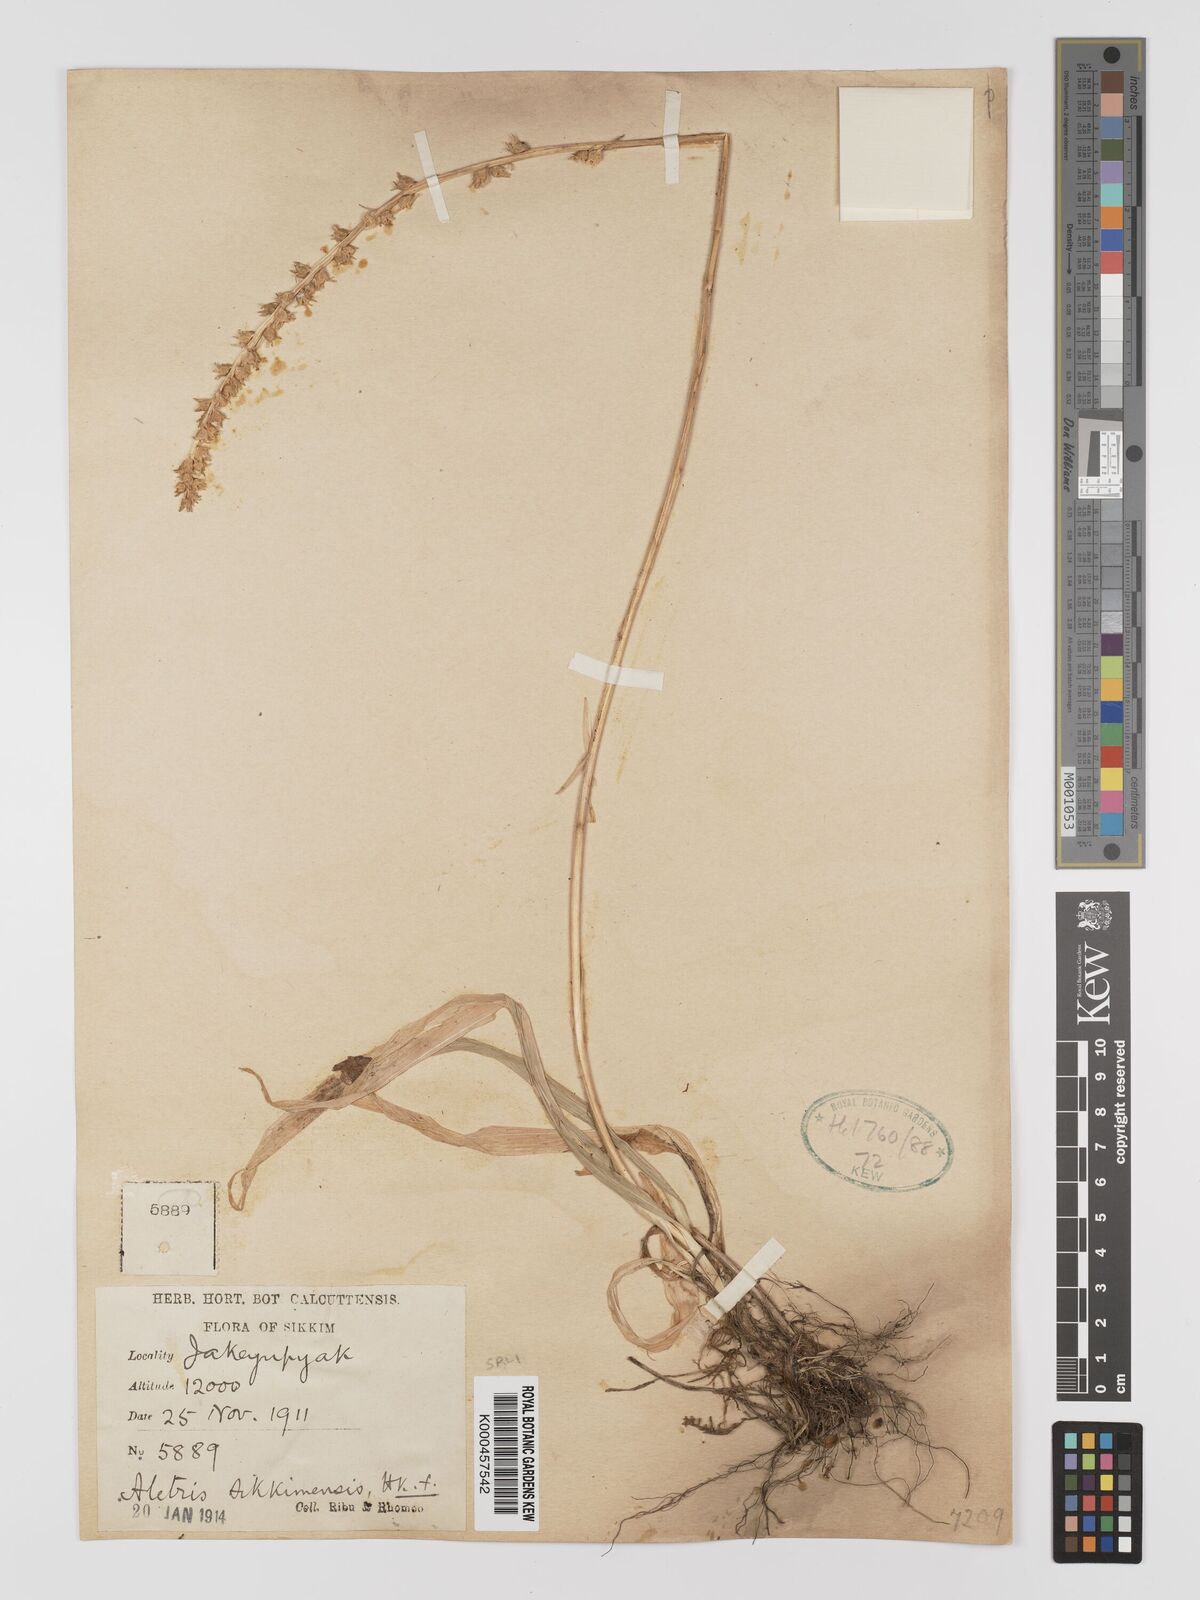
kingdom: Plantae
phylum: Tracheophyta
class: Liliopsida
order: Dioscoreales
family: Nartheciaceae
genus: Aletris
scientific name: Aletris glabra
